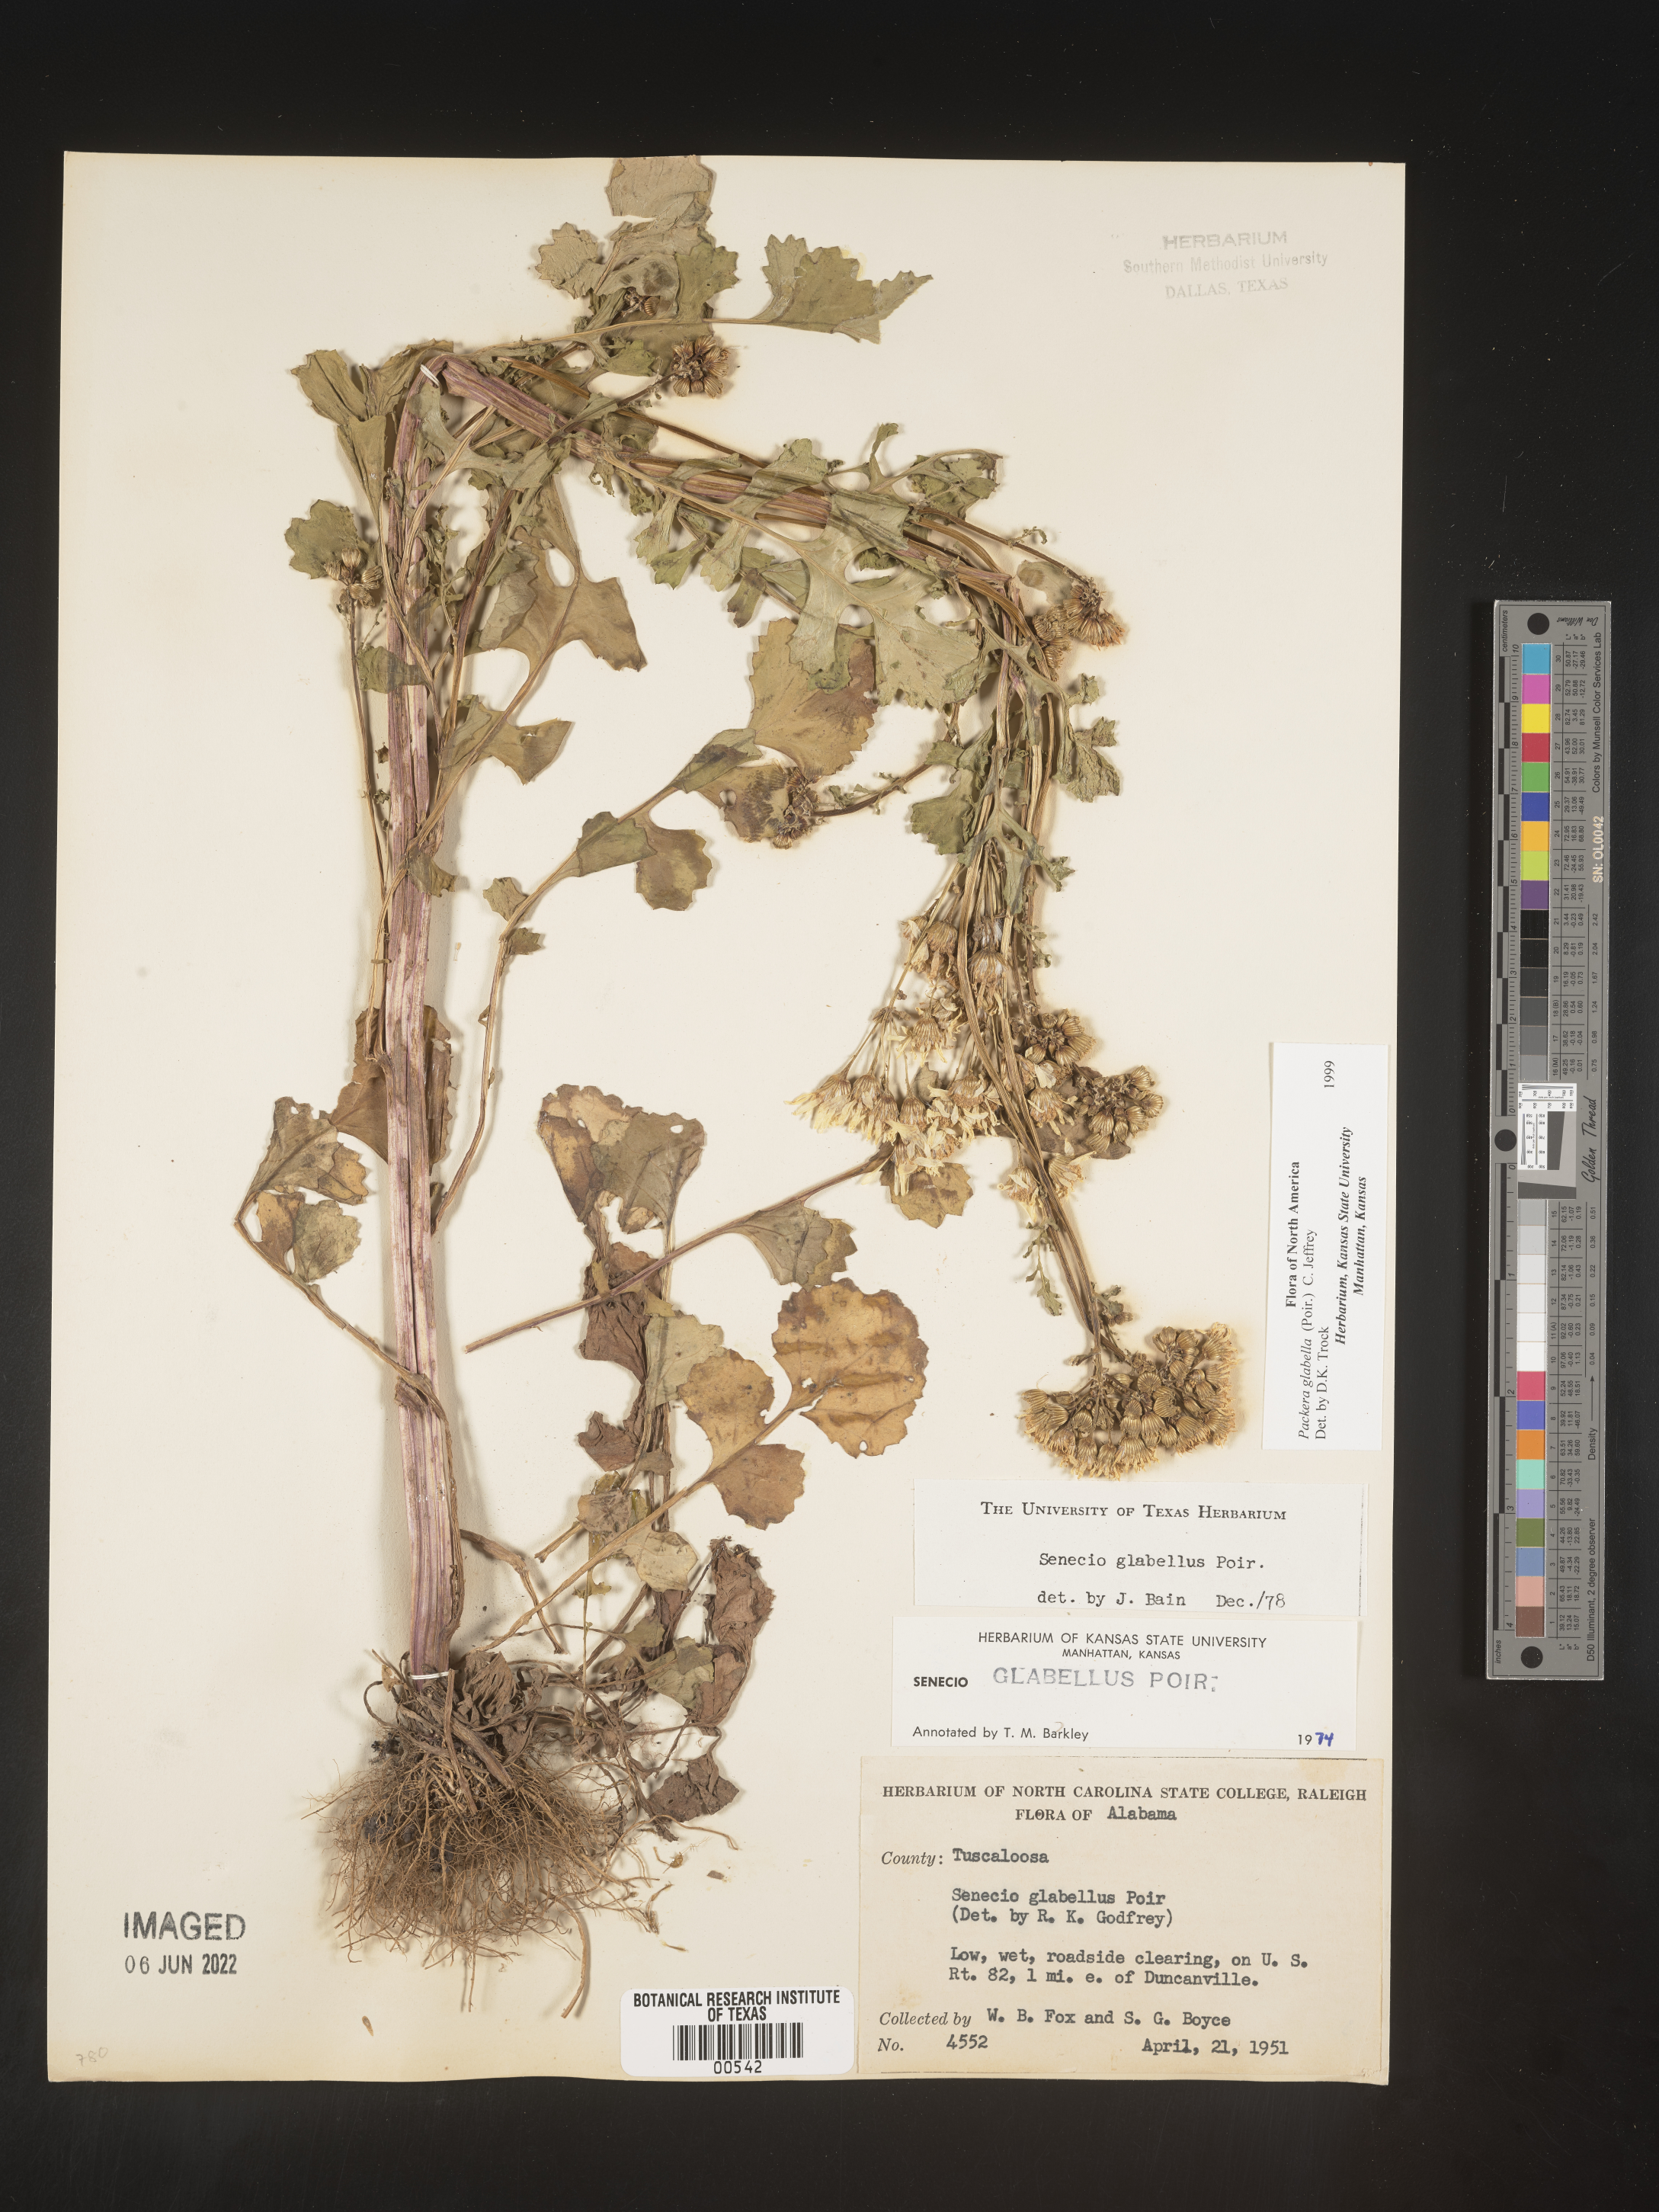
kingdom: Plantae
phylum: Tracheophyta
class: Magnoliopsida
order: Asterales
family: Asteraceae
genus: Packera
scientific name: Packera glabella
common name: Butterweed
